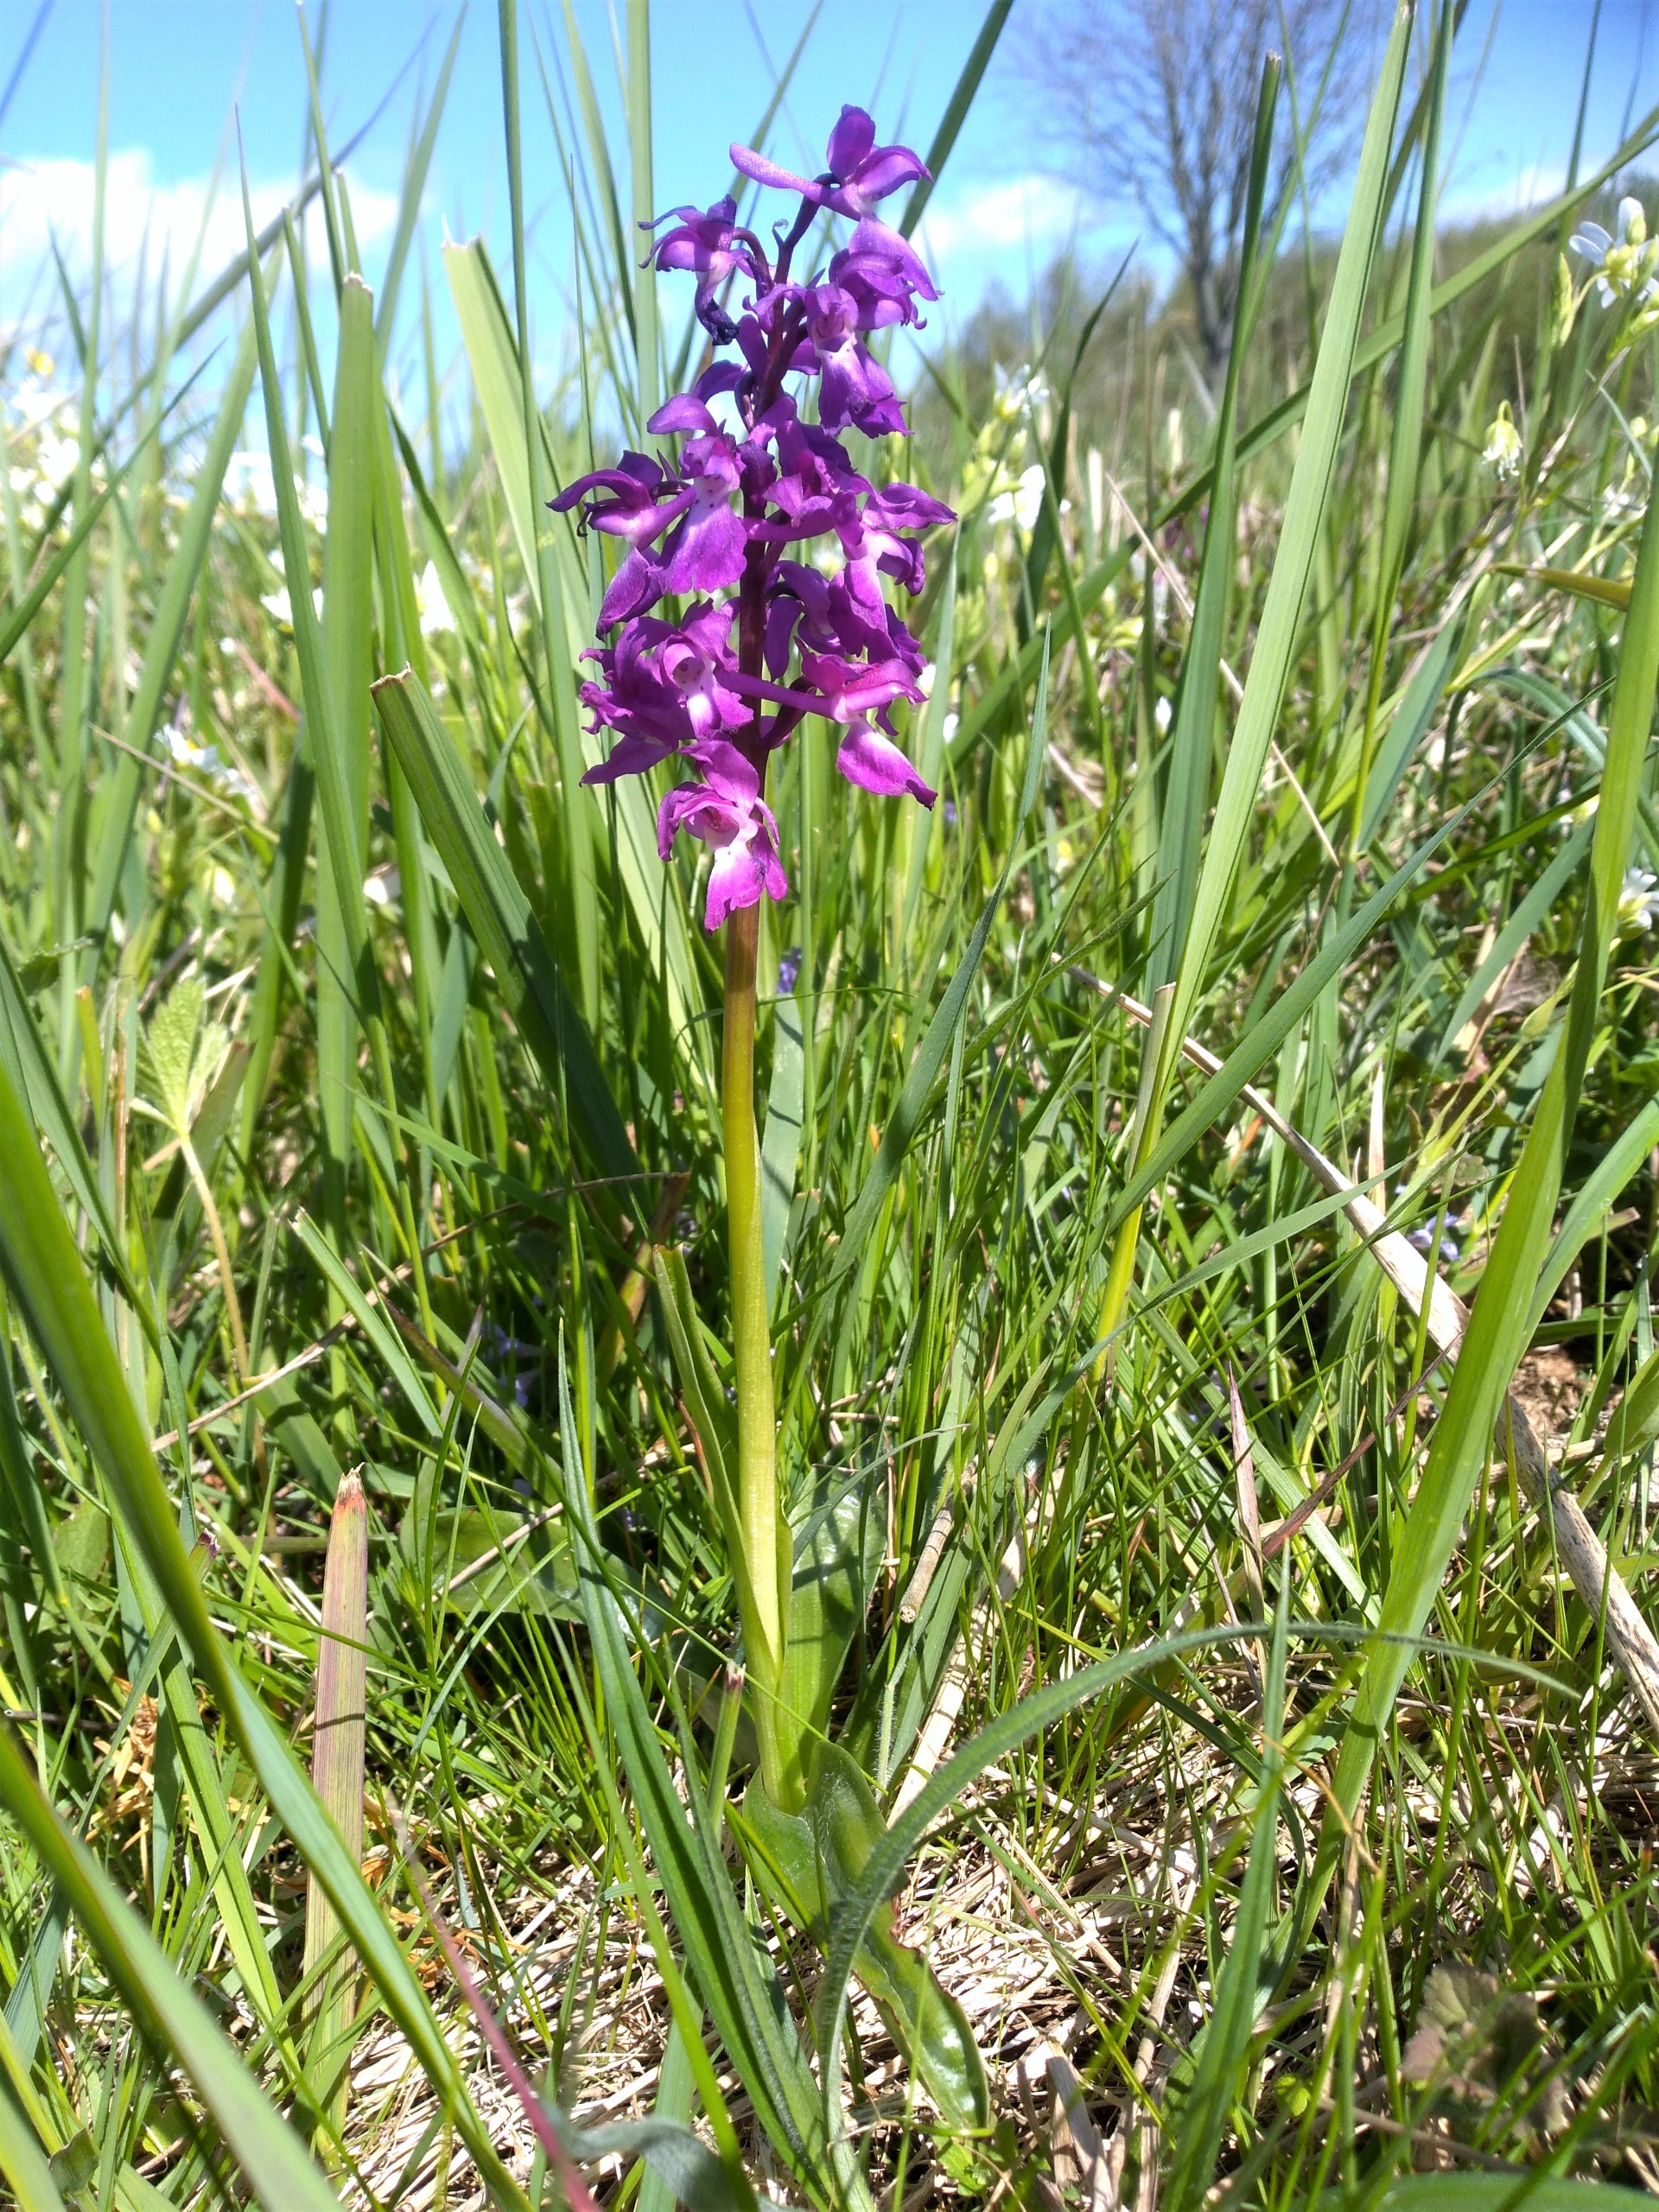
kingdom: Plantae
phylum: Tracheophyta
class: Liliopsida
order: Asparagales
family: Orchidaceae
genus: Orchis
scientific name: Orchis mascula
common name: Tyndakset gøgeurt
